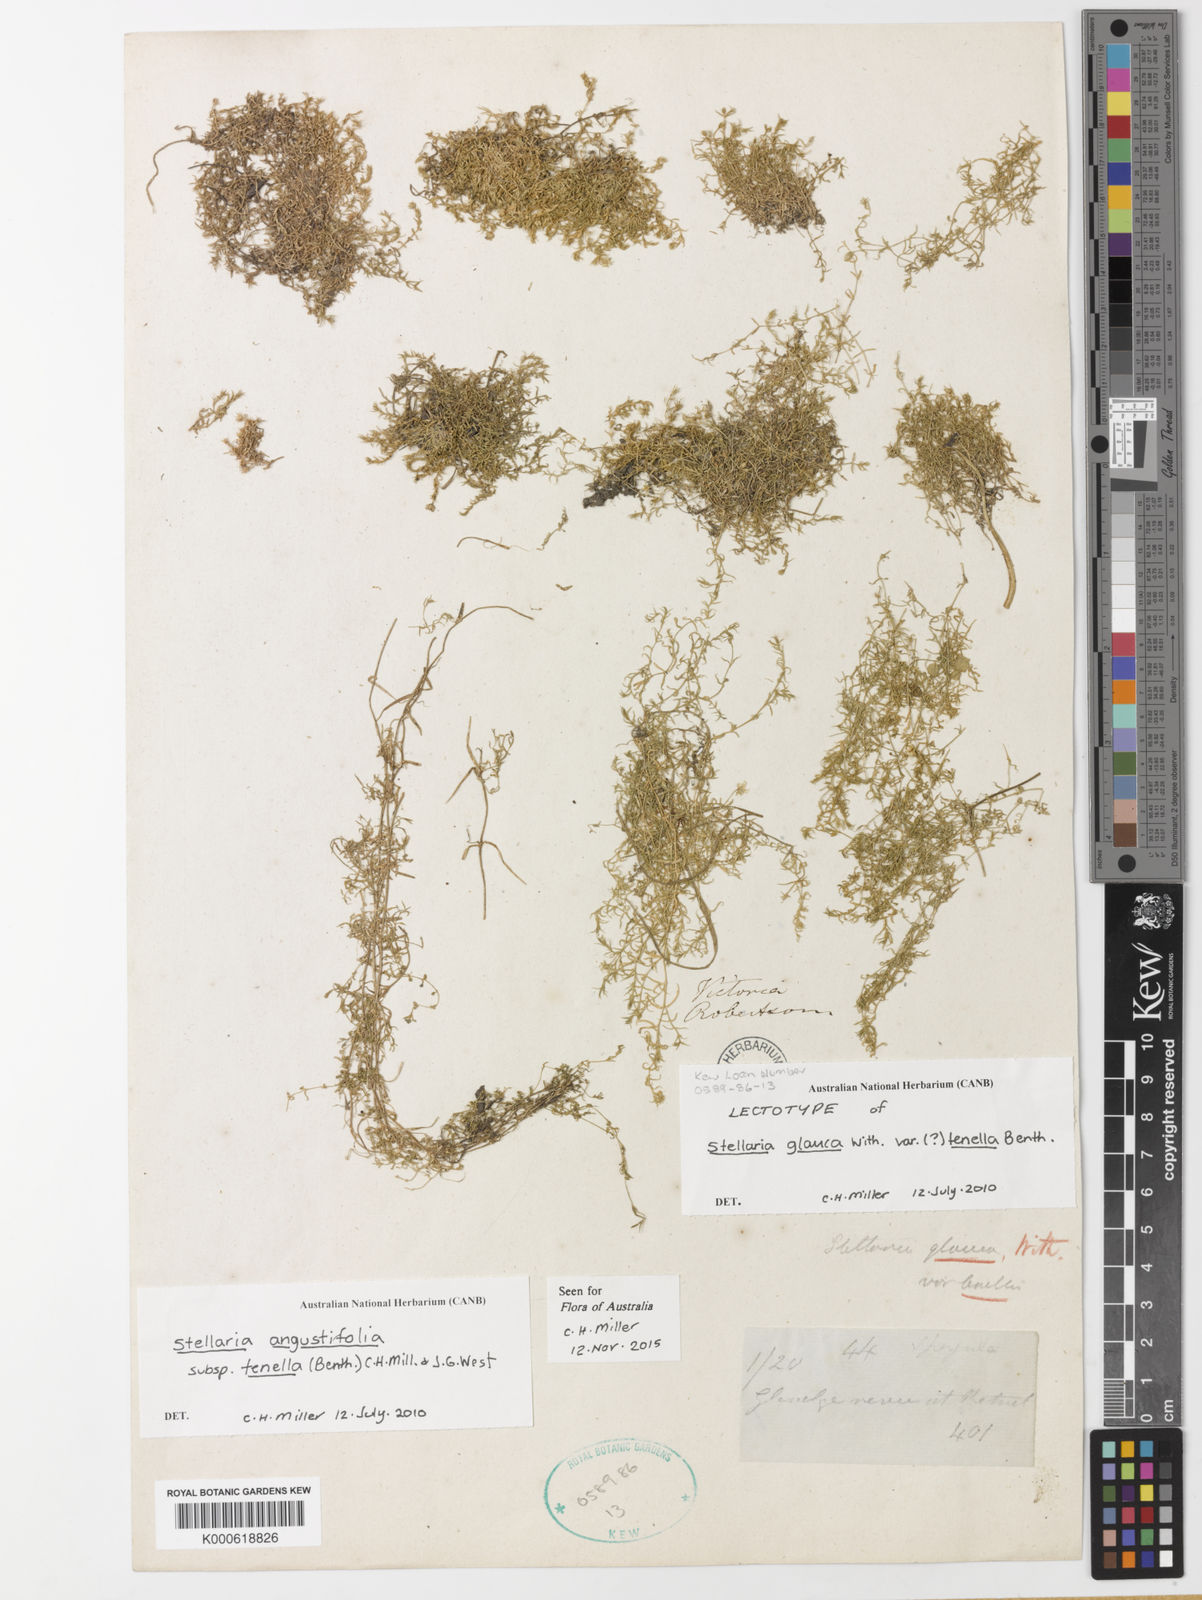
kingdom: Plantae
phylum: Tracheophyta
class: Magnoliopsida
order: Caryophyllales
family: Caryophyllaceae
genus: Stellaria
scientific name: Stellaria
